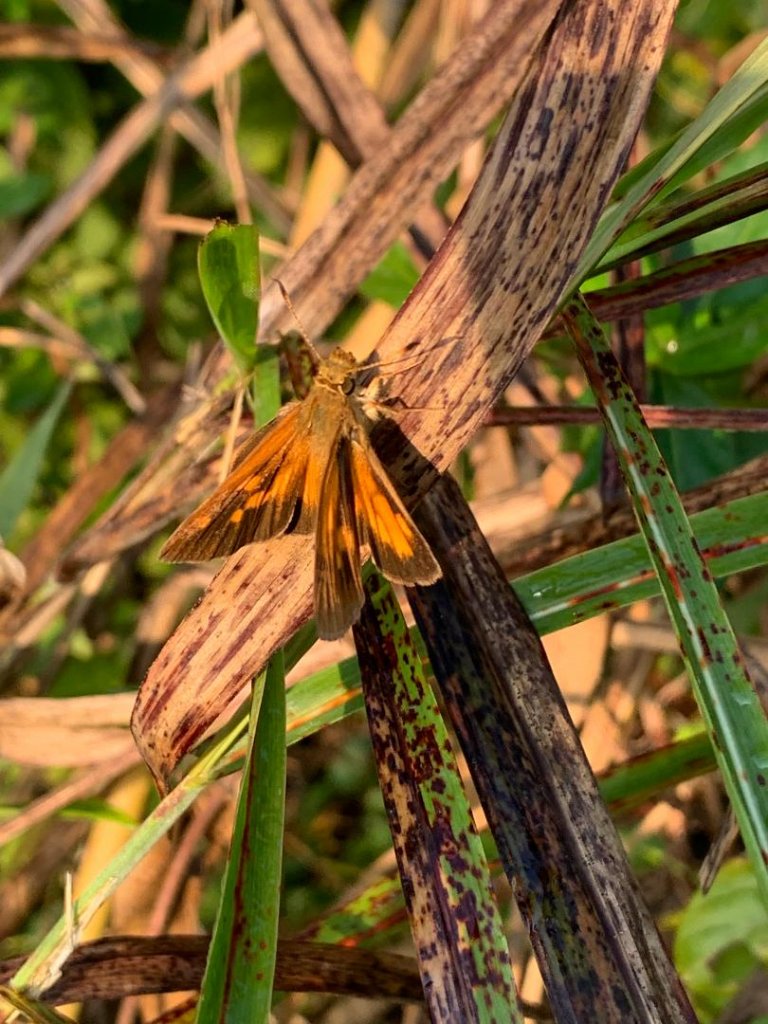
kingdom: Animalia
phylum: Arthropoda
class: Insecta
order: Lepidoptera
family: Hesperiidae
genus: Poanes
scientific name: Poanes viator
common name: Broad-winged Skipper
